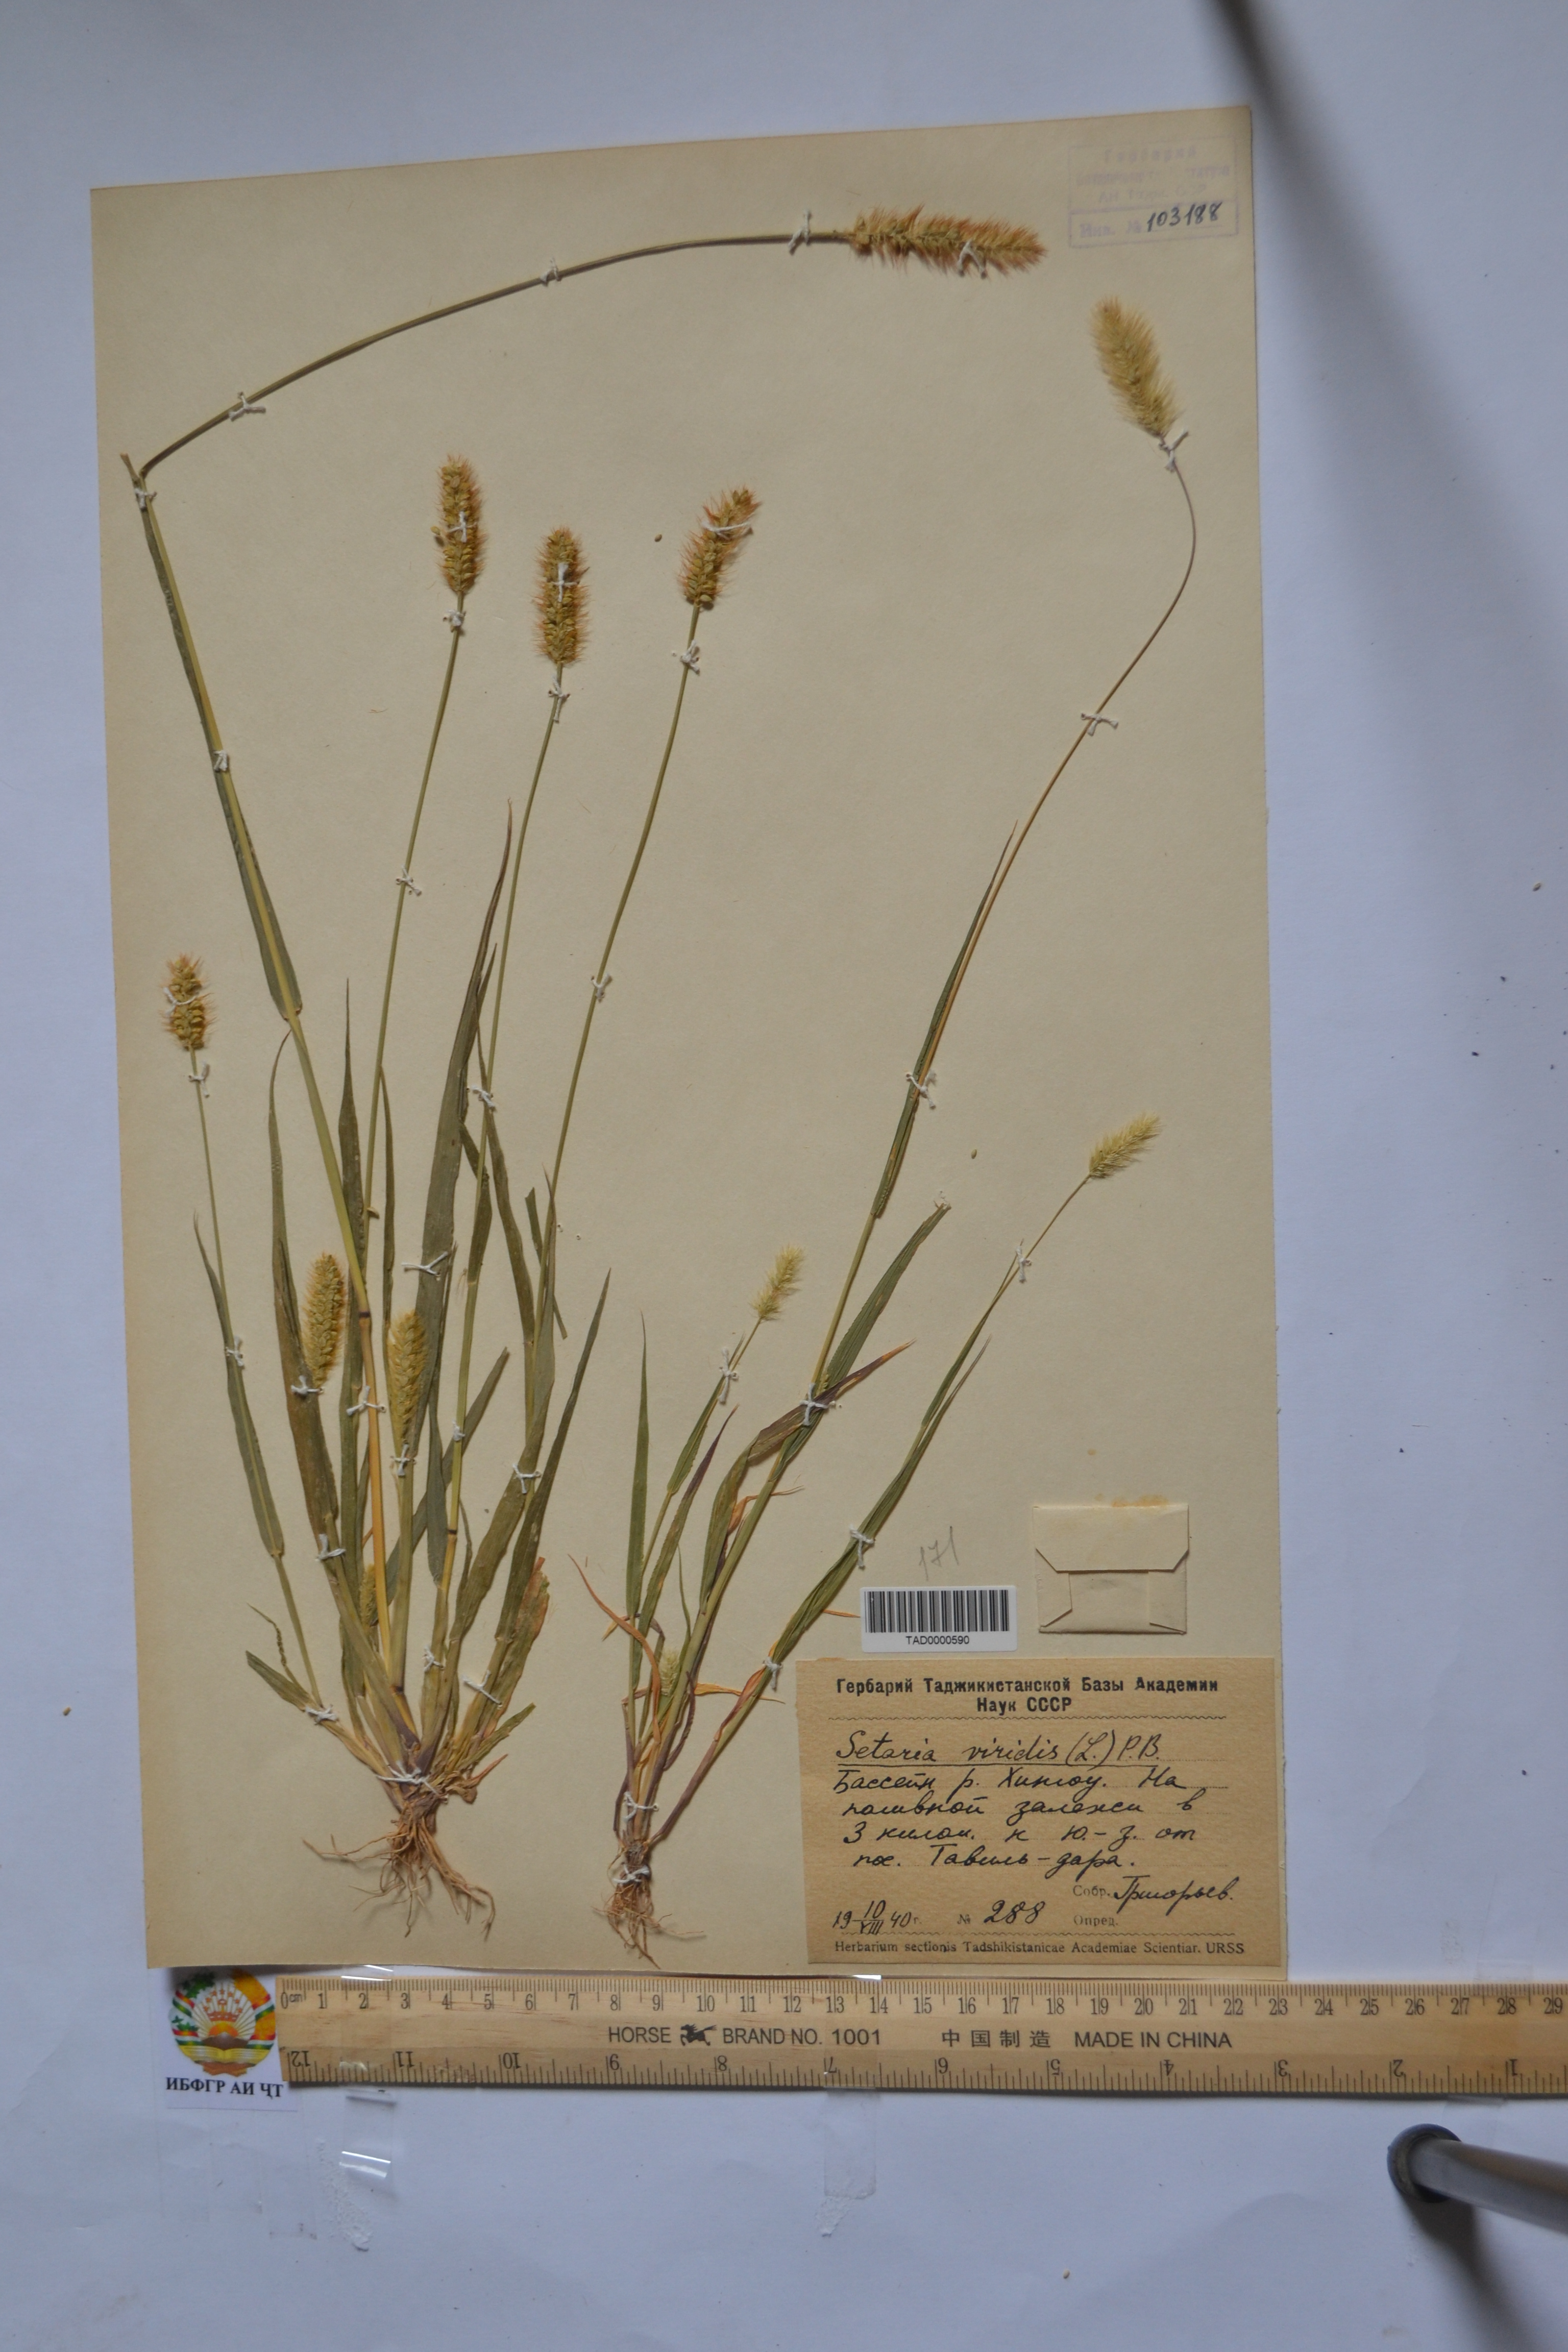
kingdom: Plantae
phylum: Tracheophyta
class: Liliopsida
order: Poales
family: Poaceae
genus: Setaria
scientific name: Setaria viridis
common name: Green bristlegrass
